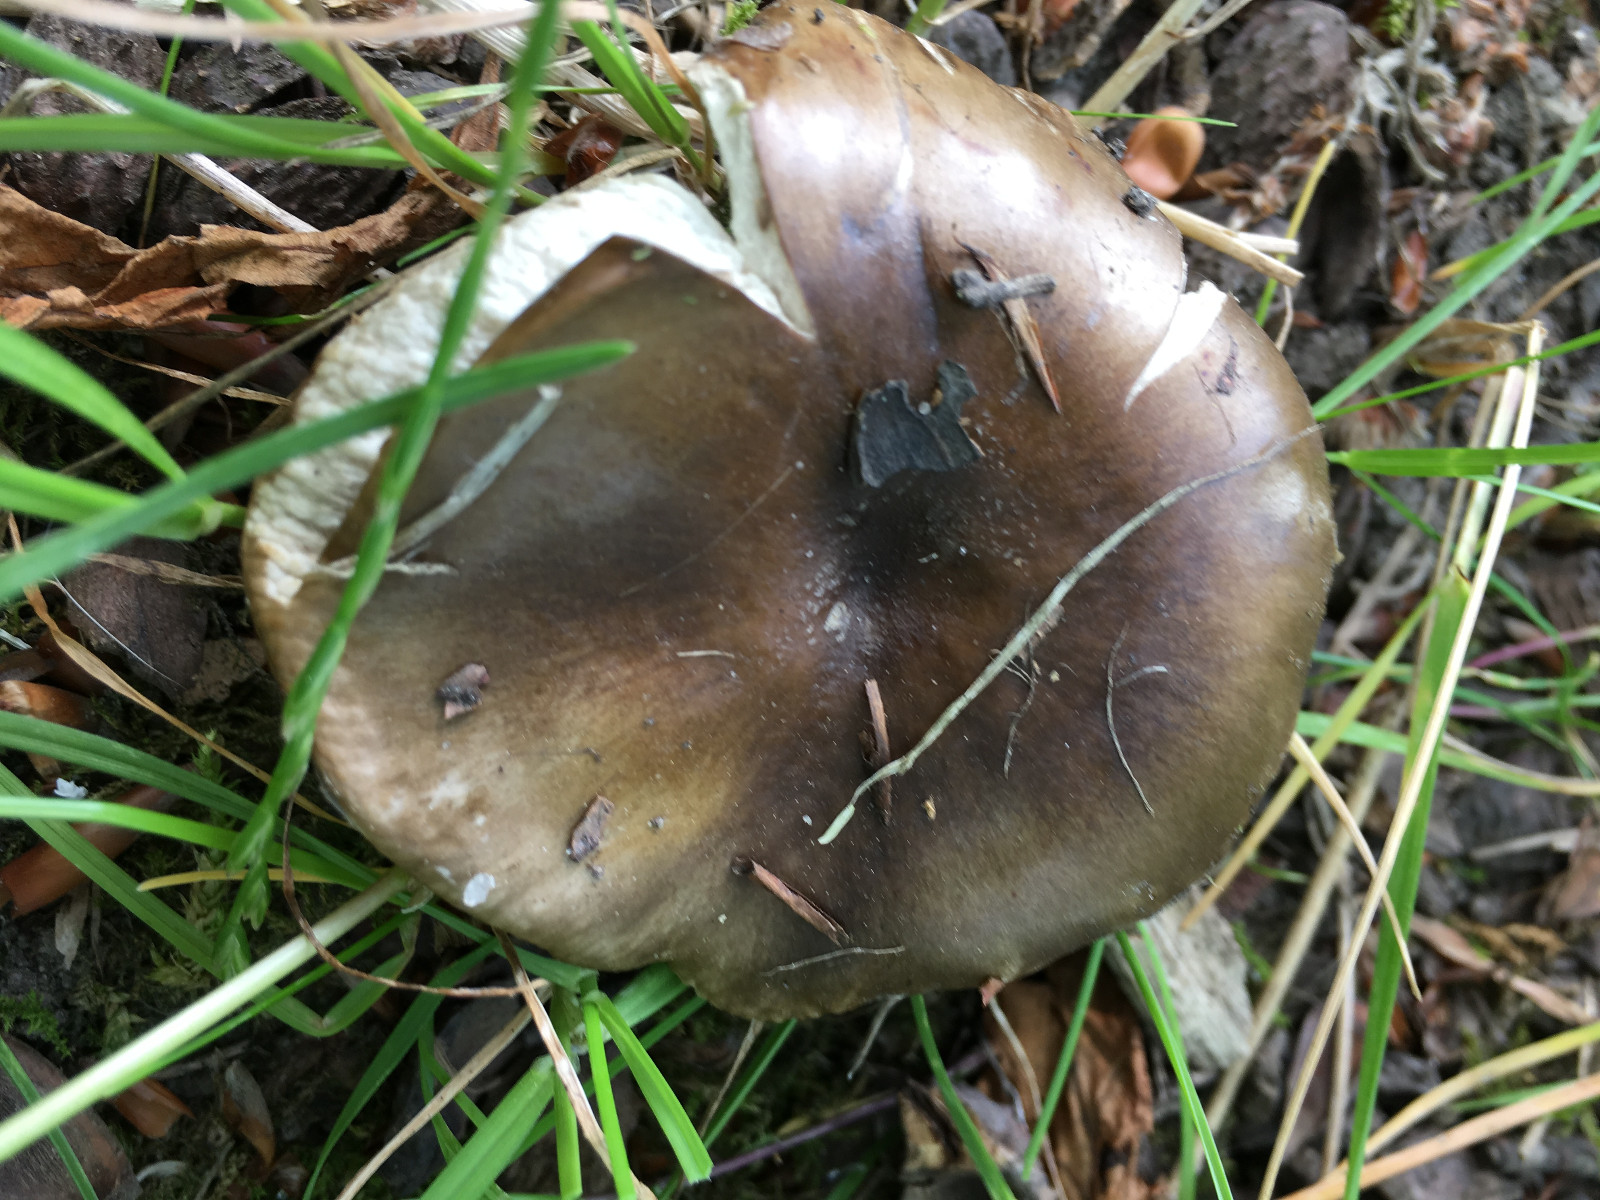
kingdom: Fungi
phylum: Basidiomycota
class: Agaricomycetes
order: Russulales
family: Russulaceae
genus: Russula
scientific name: Russula amoenolens
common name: skarp kam-skørhat
